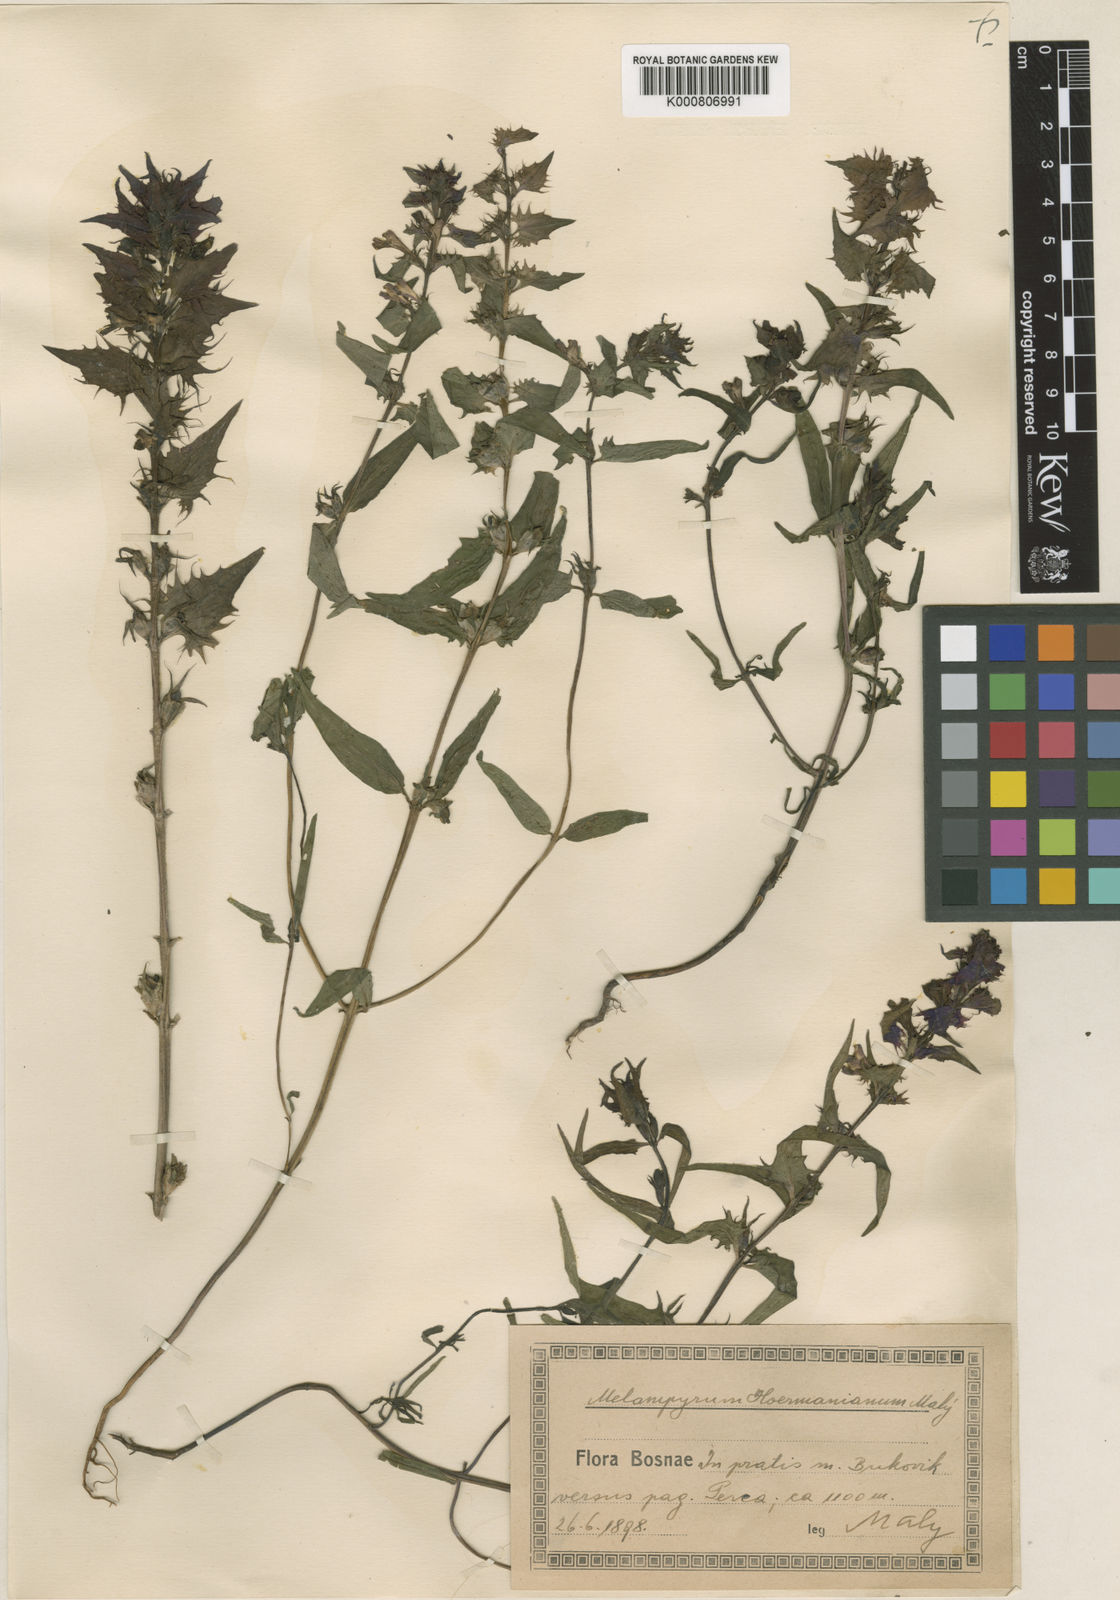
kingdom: Plantae
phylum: Tracheophyta
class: Magnoliopsida
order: Lamiales
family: Orobanchaceae
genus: Melampyrum
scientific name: Melampyrum hoermannianum
